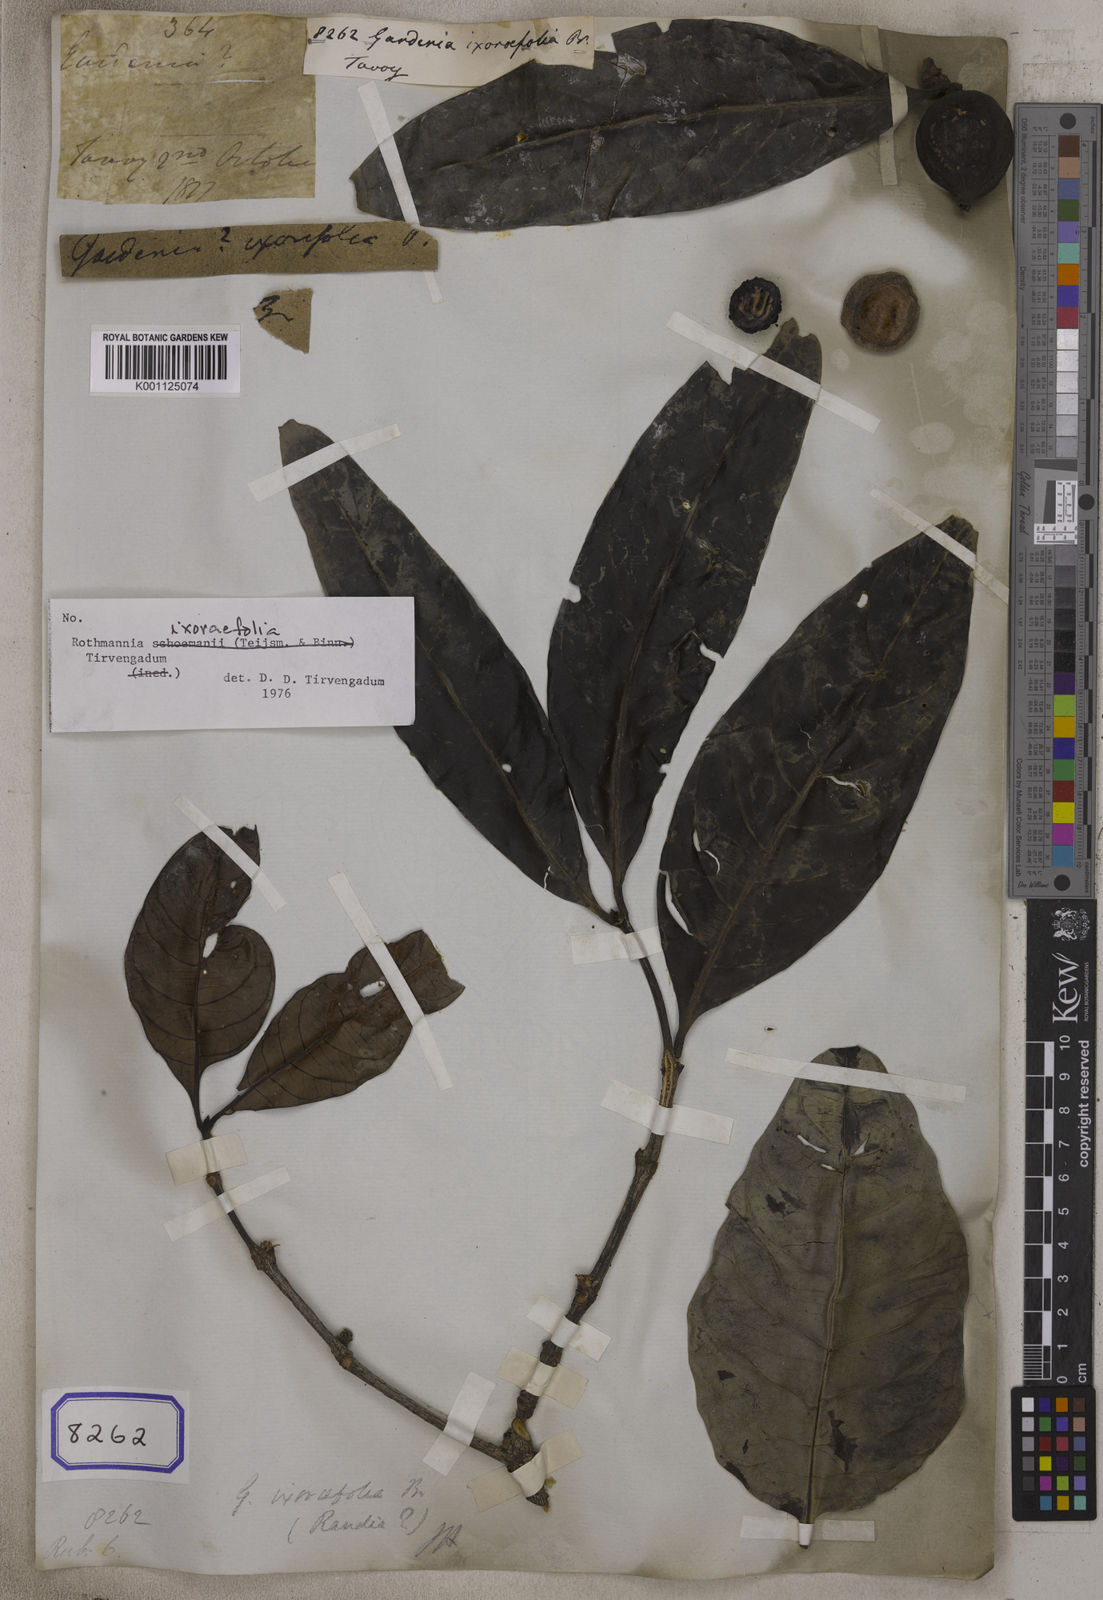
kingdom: Plantae
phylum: Tracheophyta
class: Magnoliopsida
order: Gentianales
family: Rubiaceae
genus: Gardenia
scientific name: Gardenia
